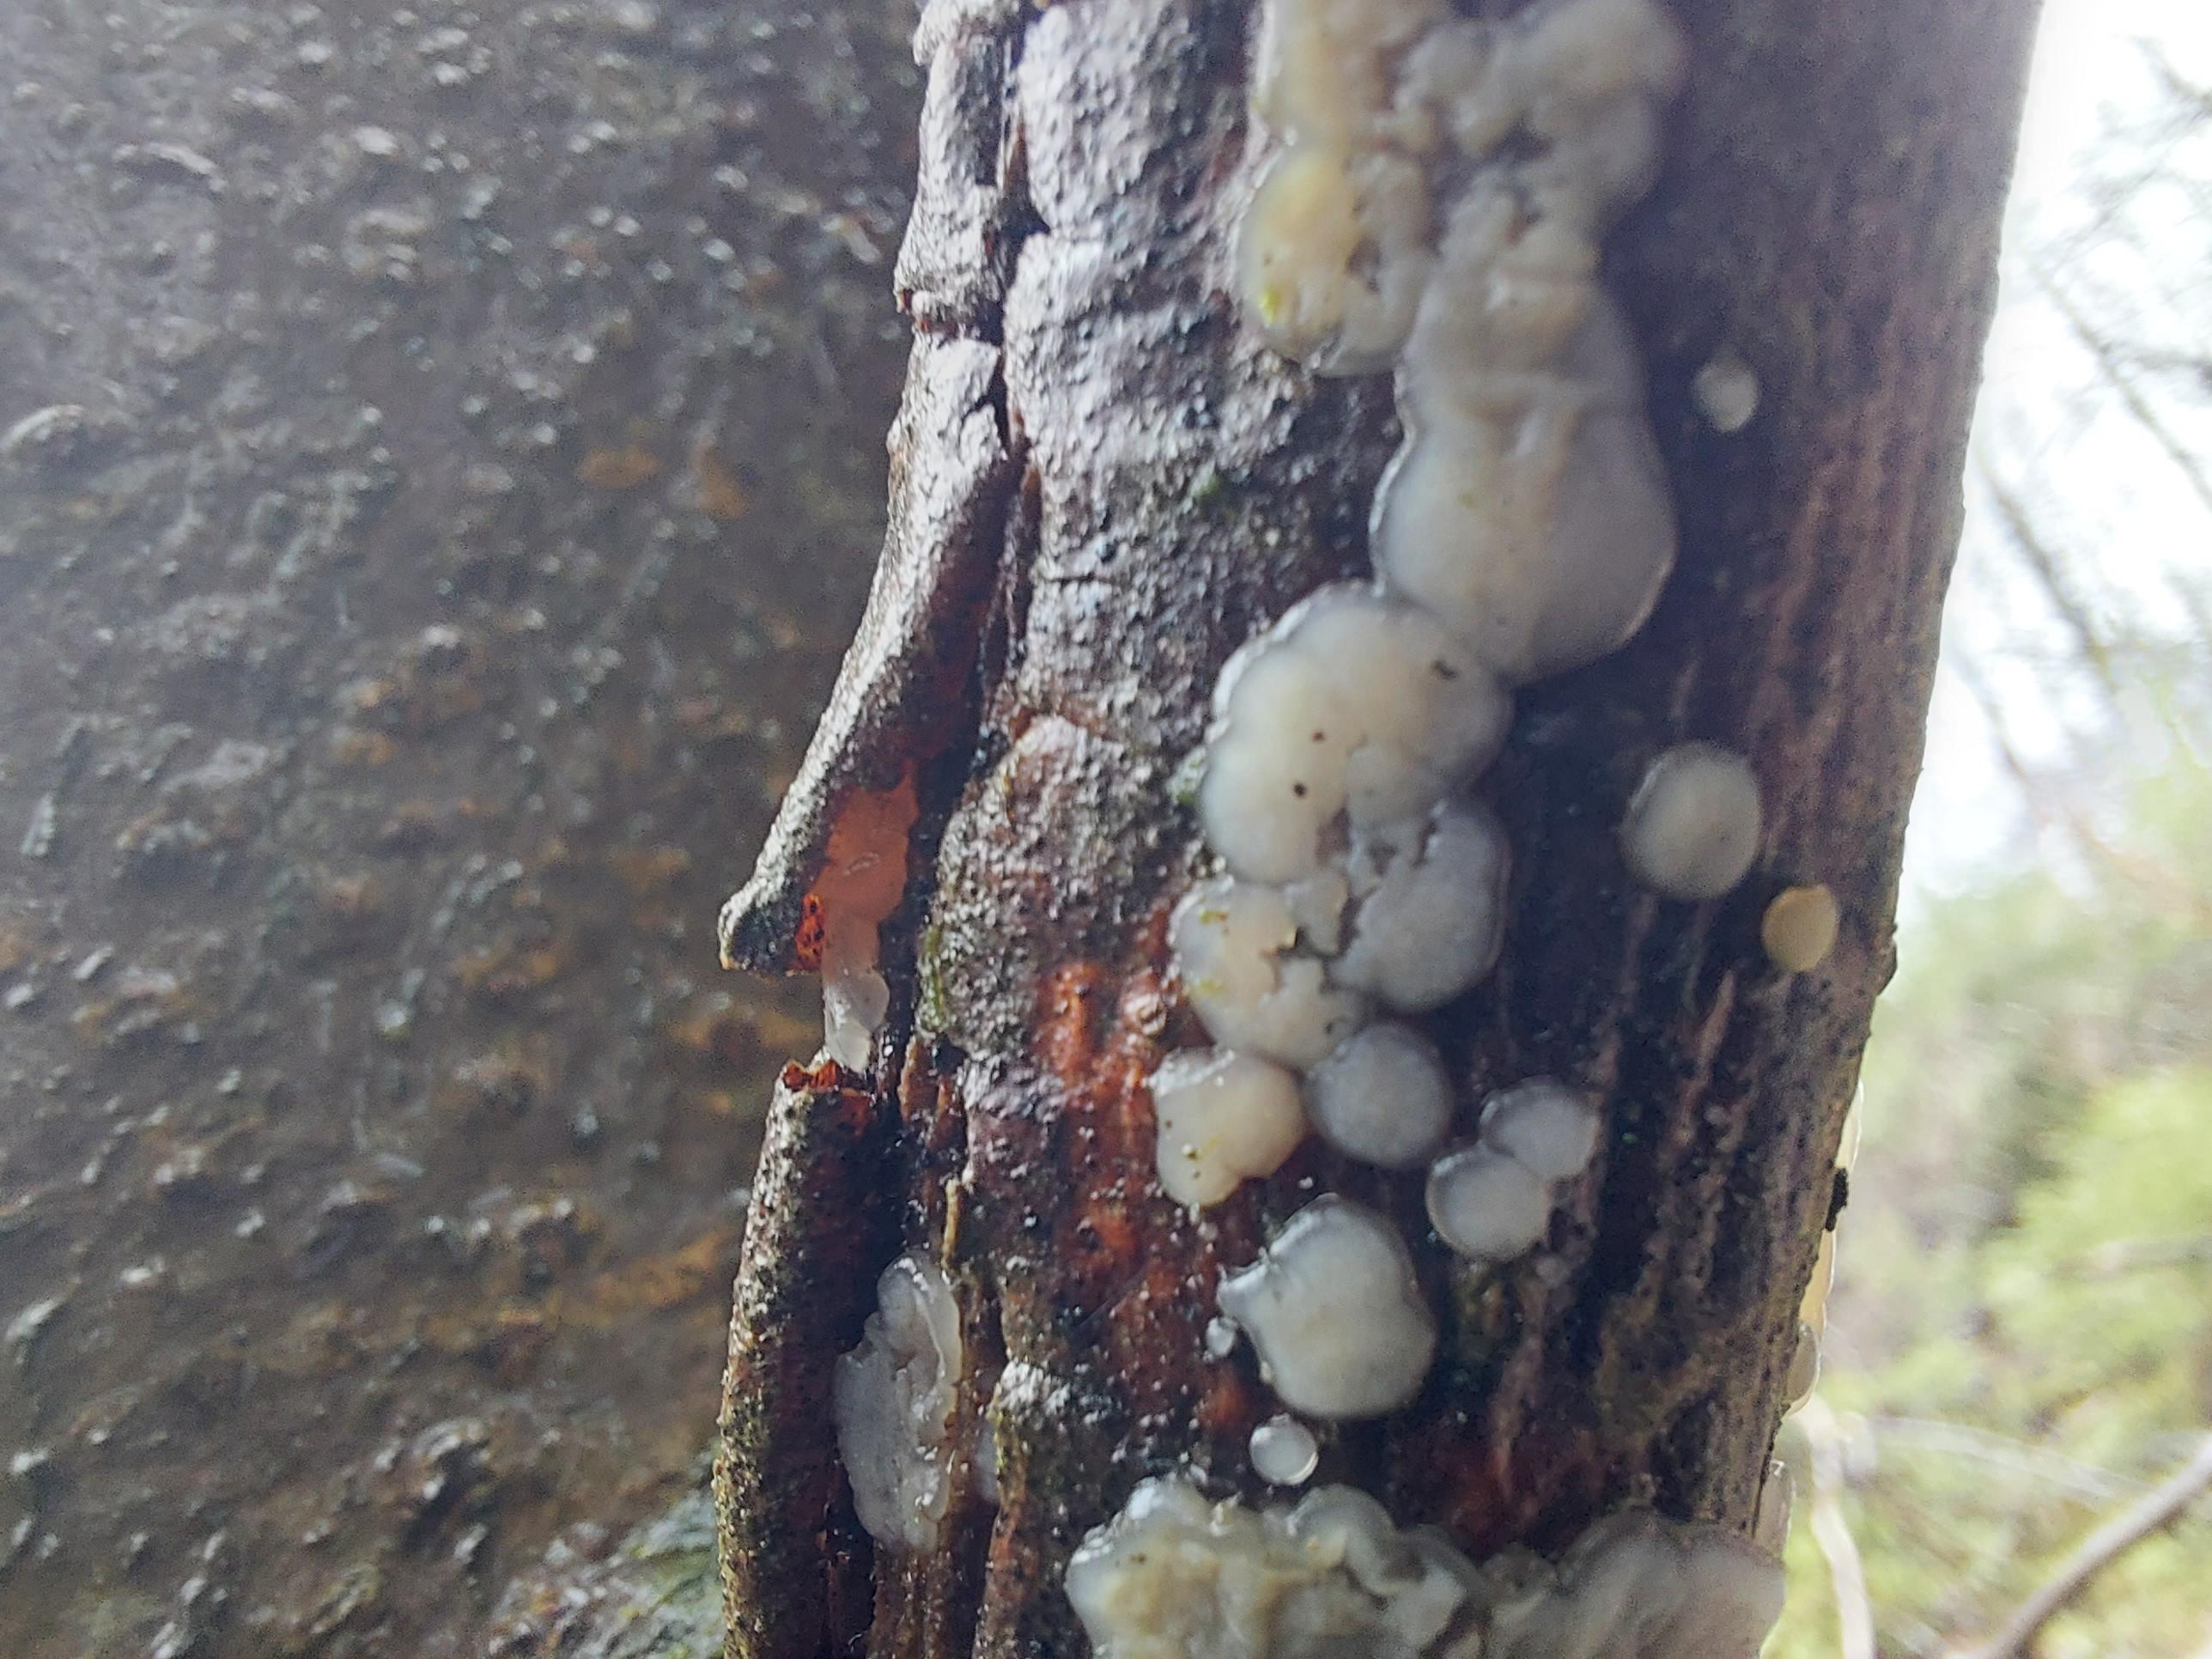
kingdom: Fungi
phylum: Basidiomycota
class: Agaricomycetes
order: Auriculariales
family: Auriculariaceae
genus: Exidia
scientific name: Exidia thuretiana
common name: hvidlig bævretop
